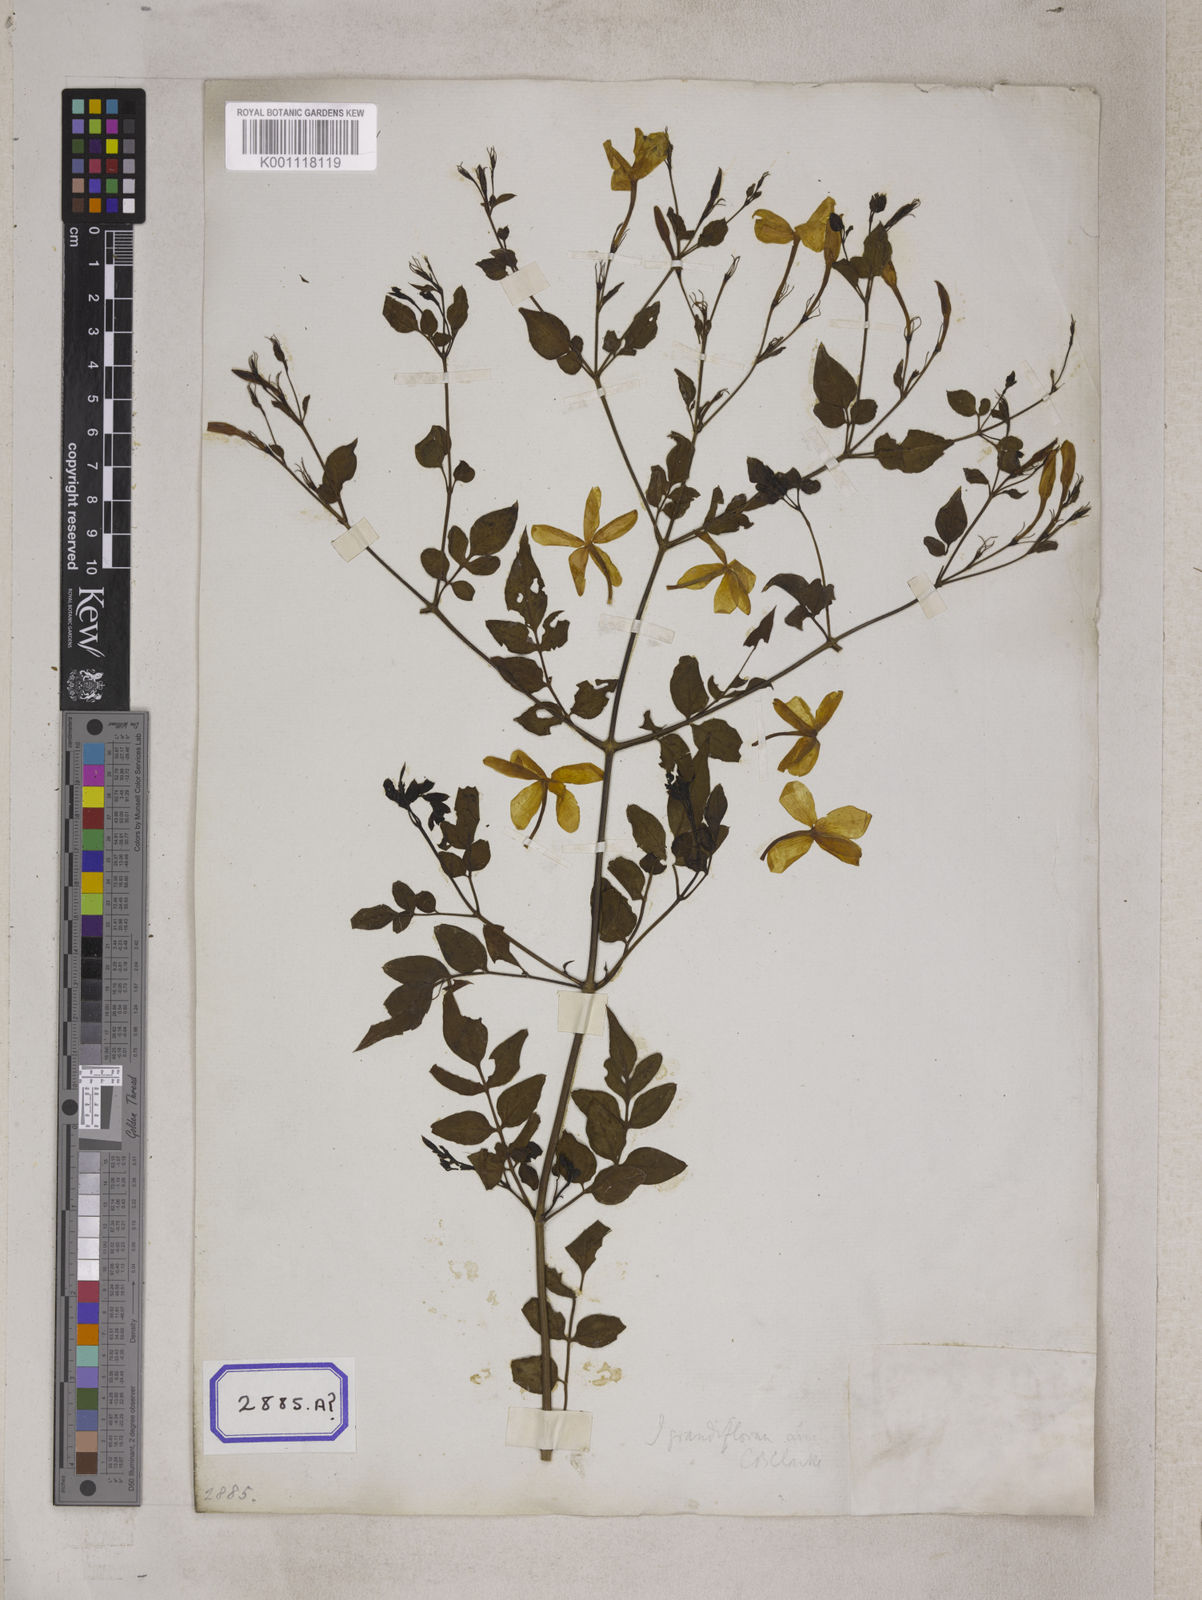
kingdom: Plantae
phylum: Tracheophyta
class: Magnoliopsida
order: Lamiales
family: Oleaceae
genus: Jasminum
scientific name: Jasminum grandiflorum
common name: Catalonian jasmine
